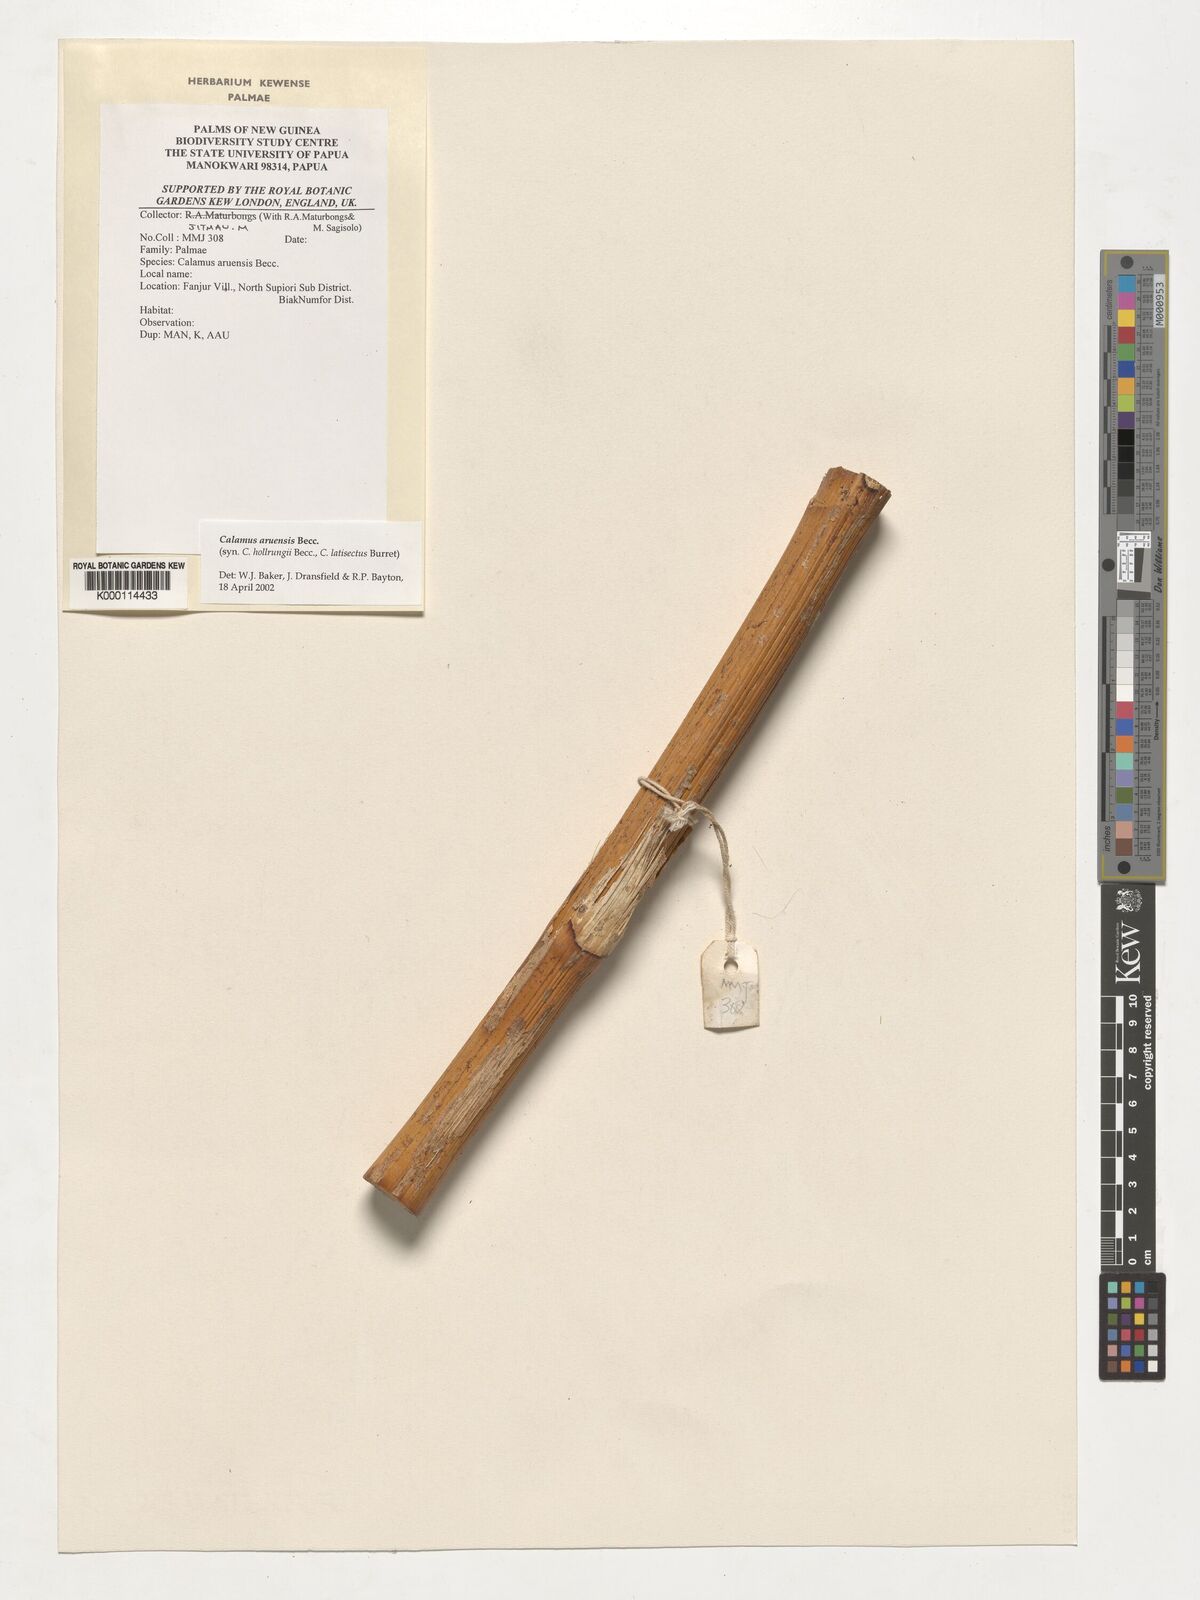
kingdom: Plantae
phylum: Tracheophyta
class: Liliopsida
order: Arecales
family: Arecaceae
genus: Calamus
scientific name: Calamus aruensis
